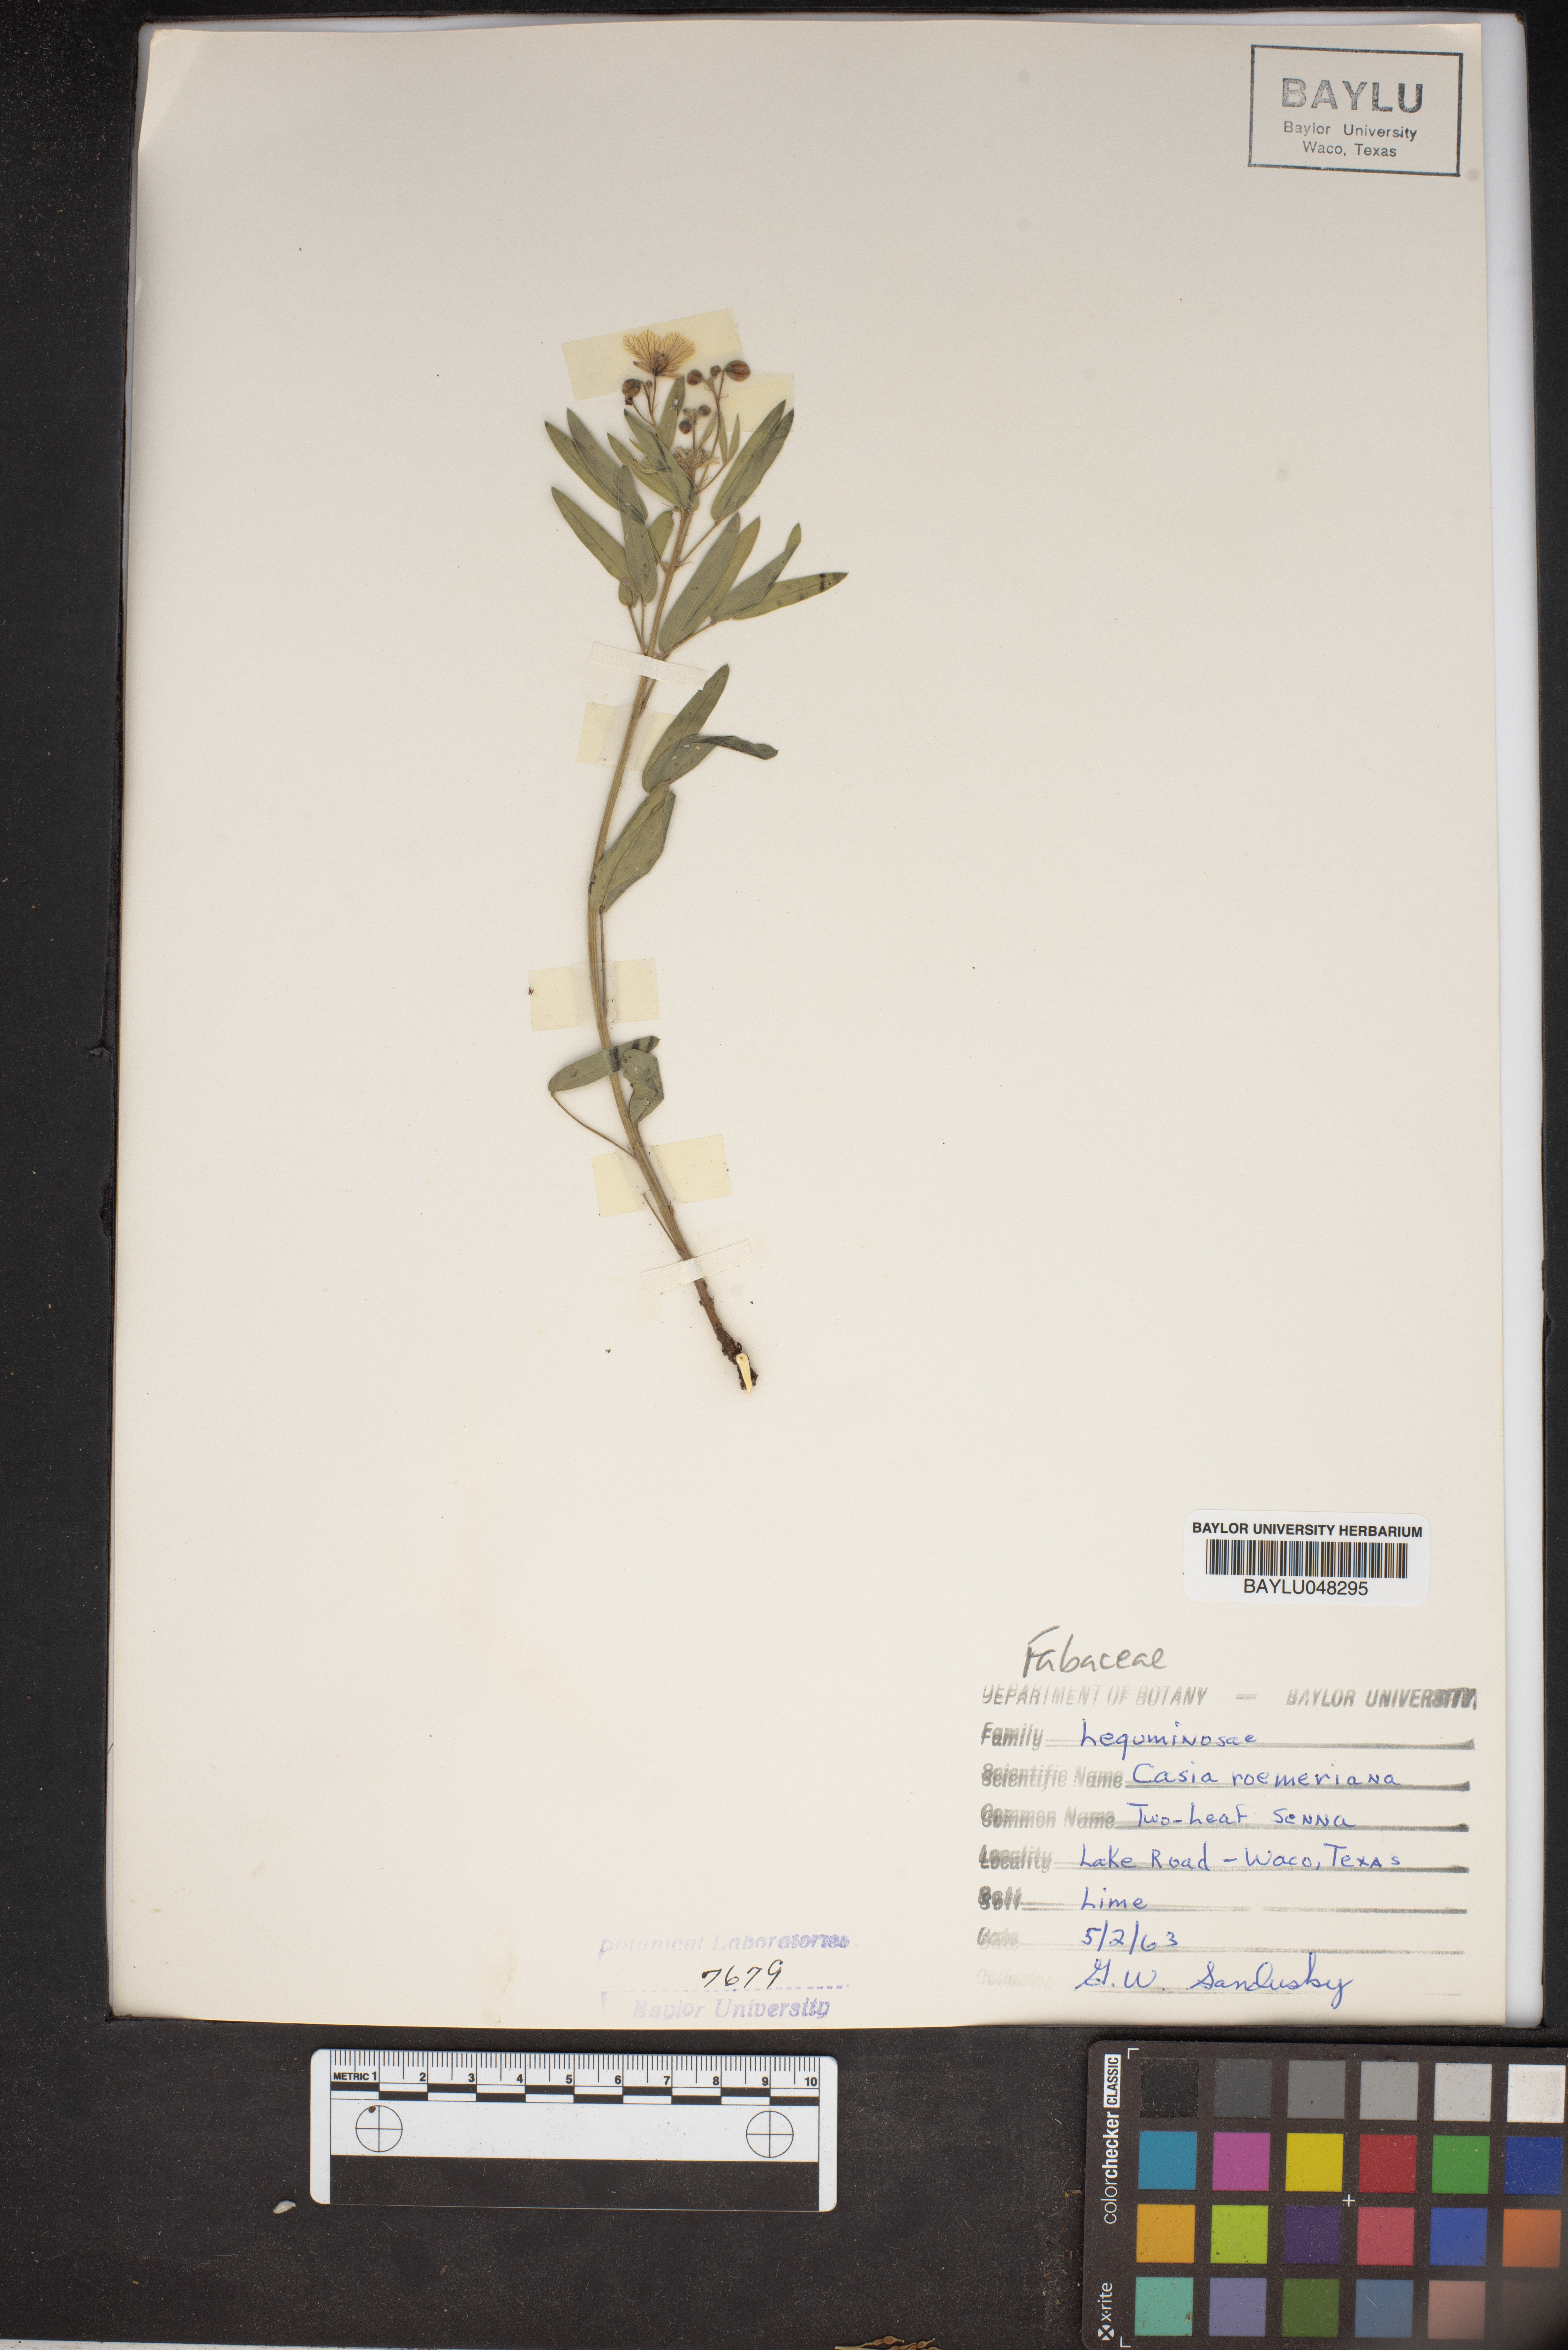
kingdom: Plantae
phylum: Tracheophyta
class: Magnoliopsida
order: Fabales
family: Fabaceae
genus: Senna
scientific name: Senna roemeriana
